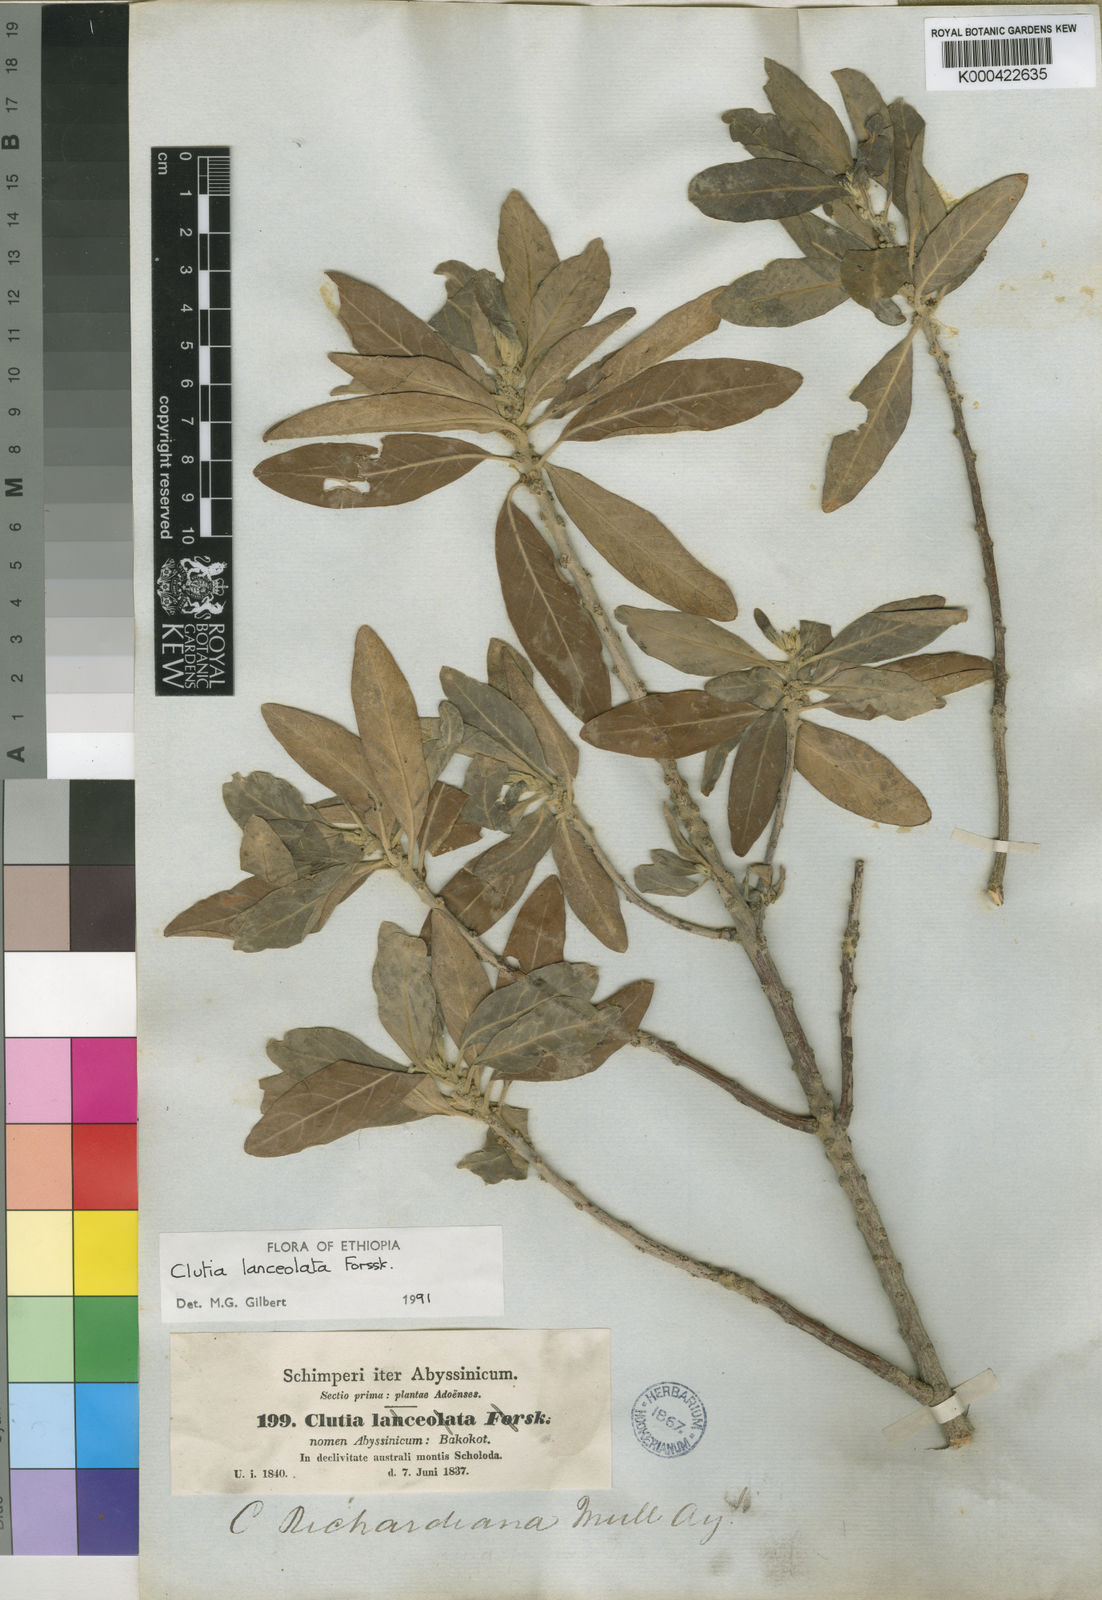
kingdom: Plantae
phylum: Tracheophyta
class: Magnoliopsida
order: Malpighiales
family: Peraceae
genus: Clutia
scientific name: Clutia lanceolata
